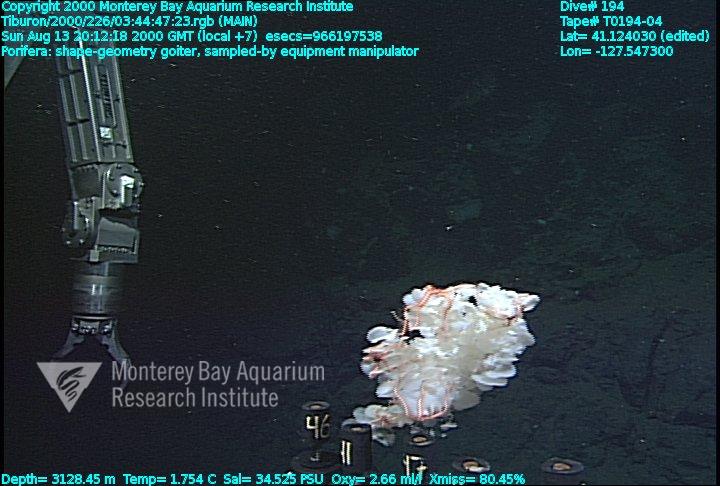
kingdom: Animalia
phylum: Porifera
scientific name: Porifera
